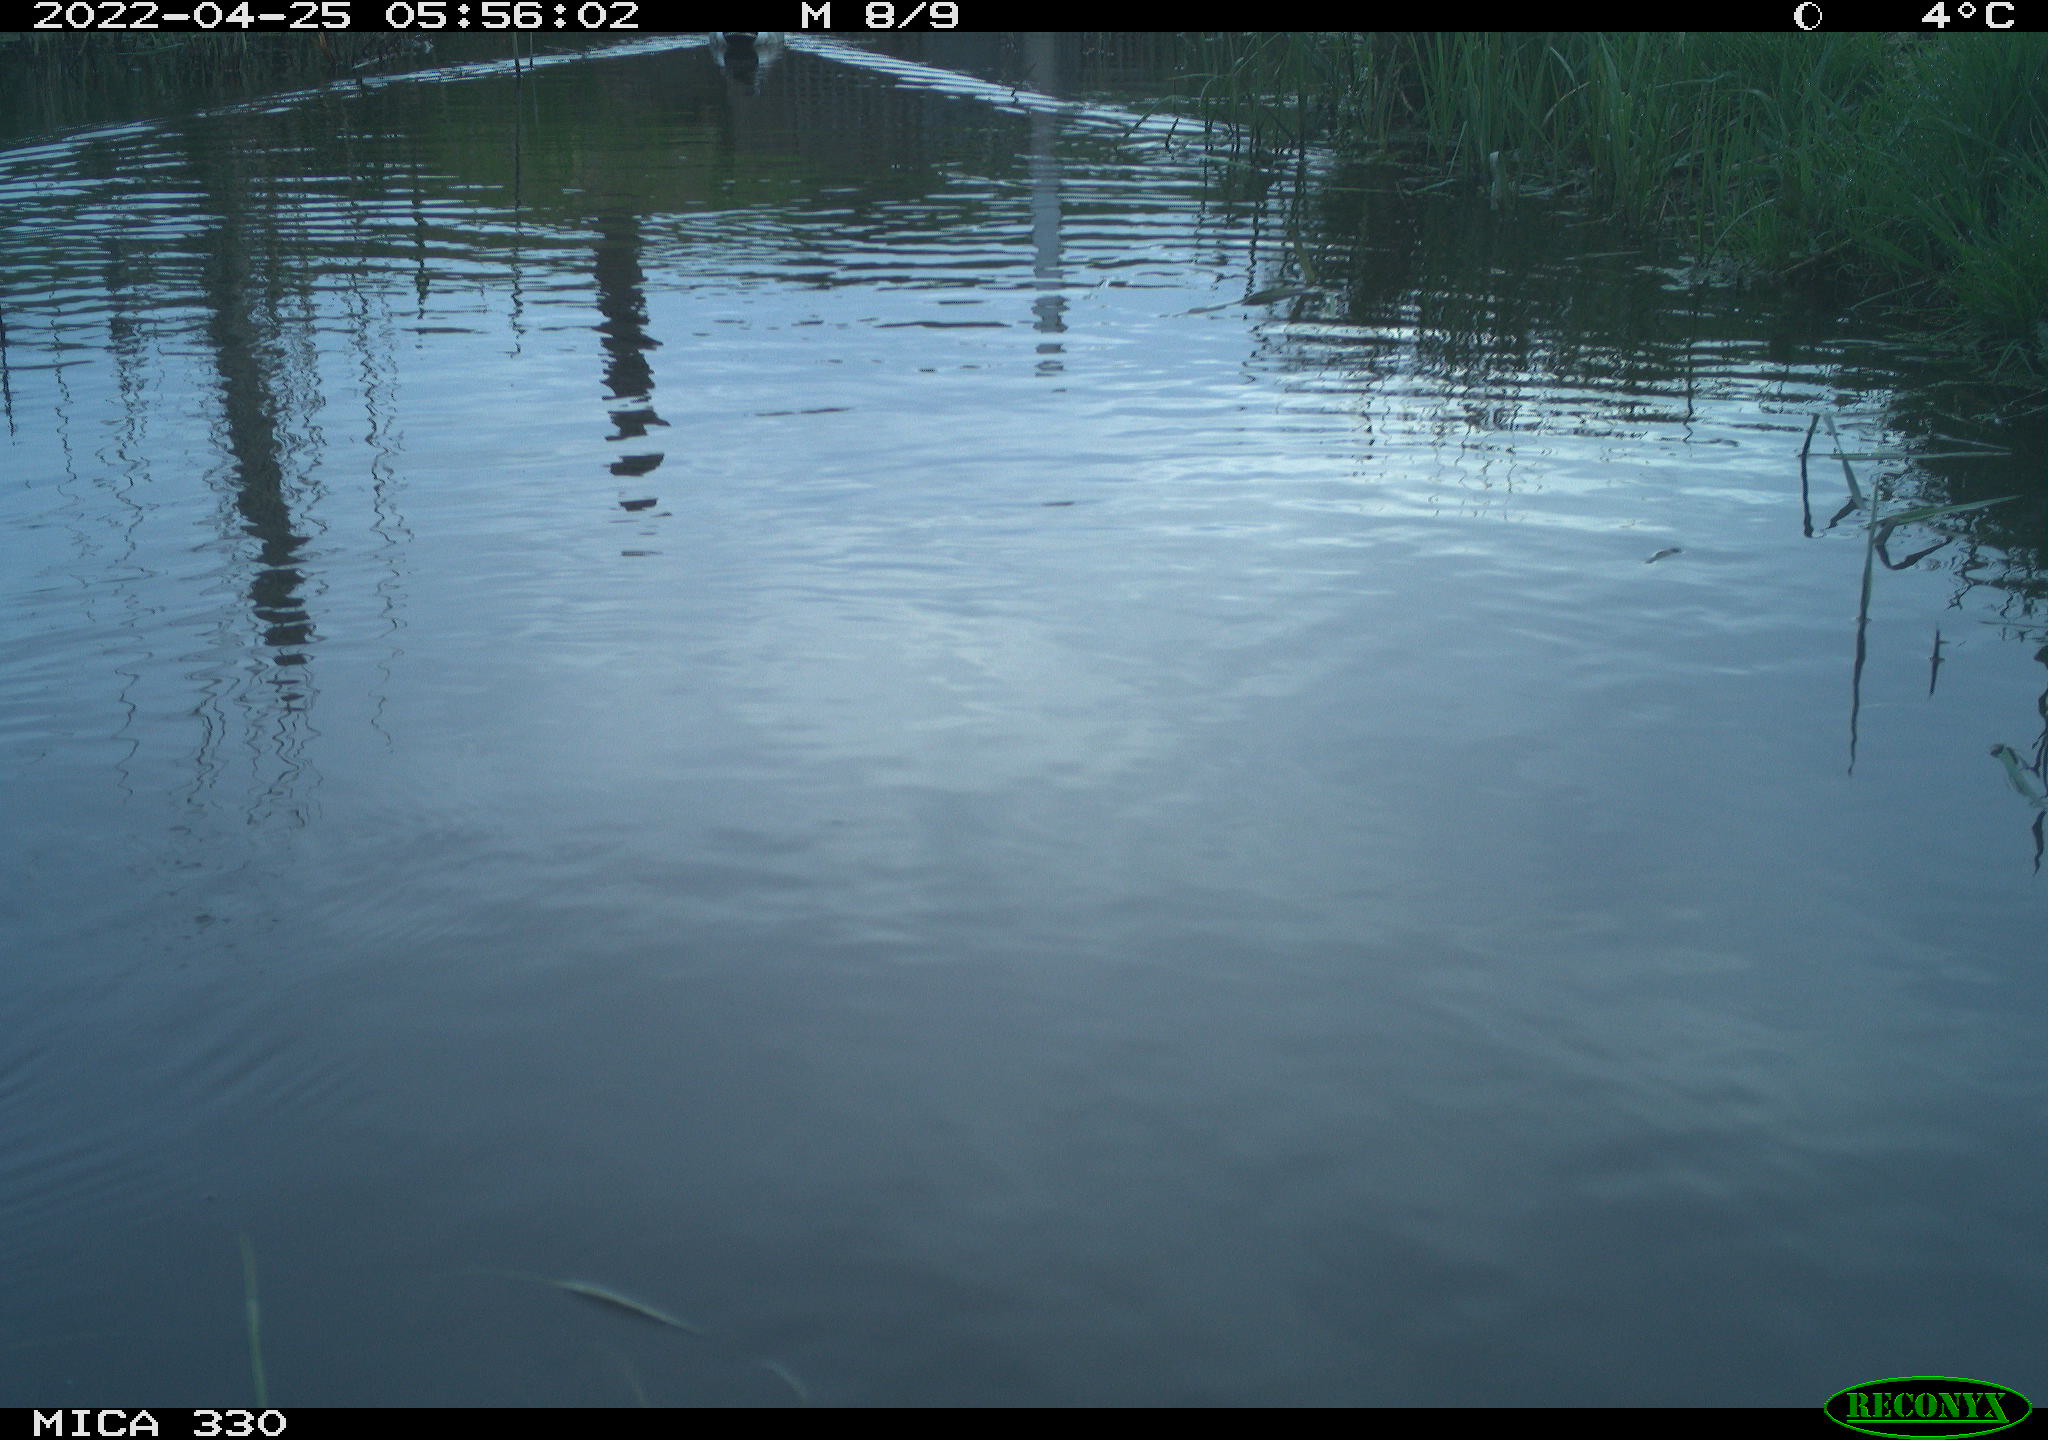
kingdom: Animalia
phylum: Chordata
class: Aves
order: Anseriformes
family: Anatidae
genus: Mareca
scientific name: Mareca strepera
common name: Gadwall
